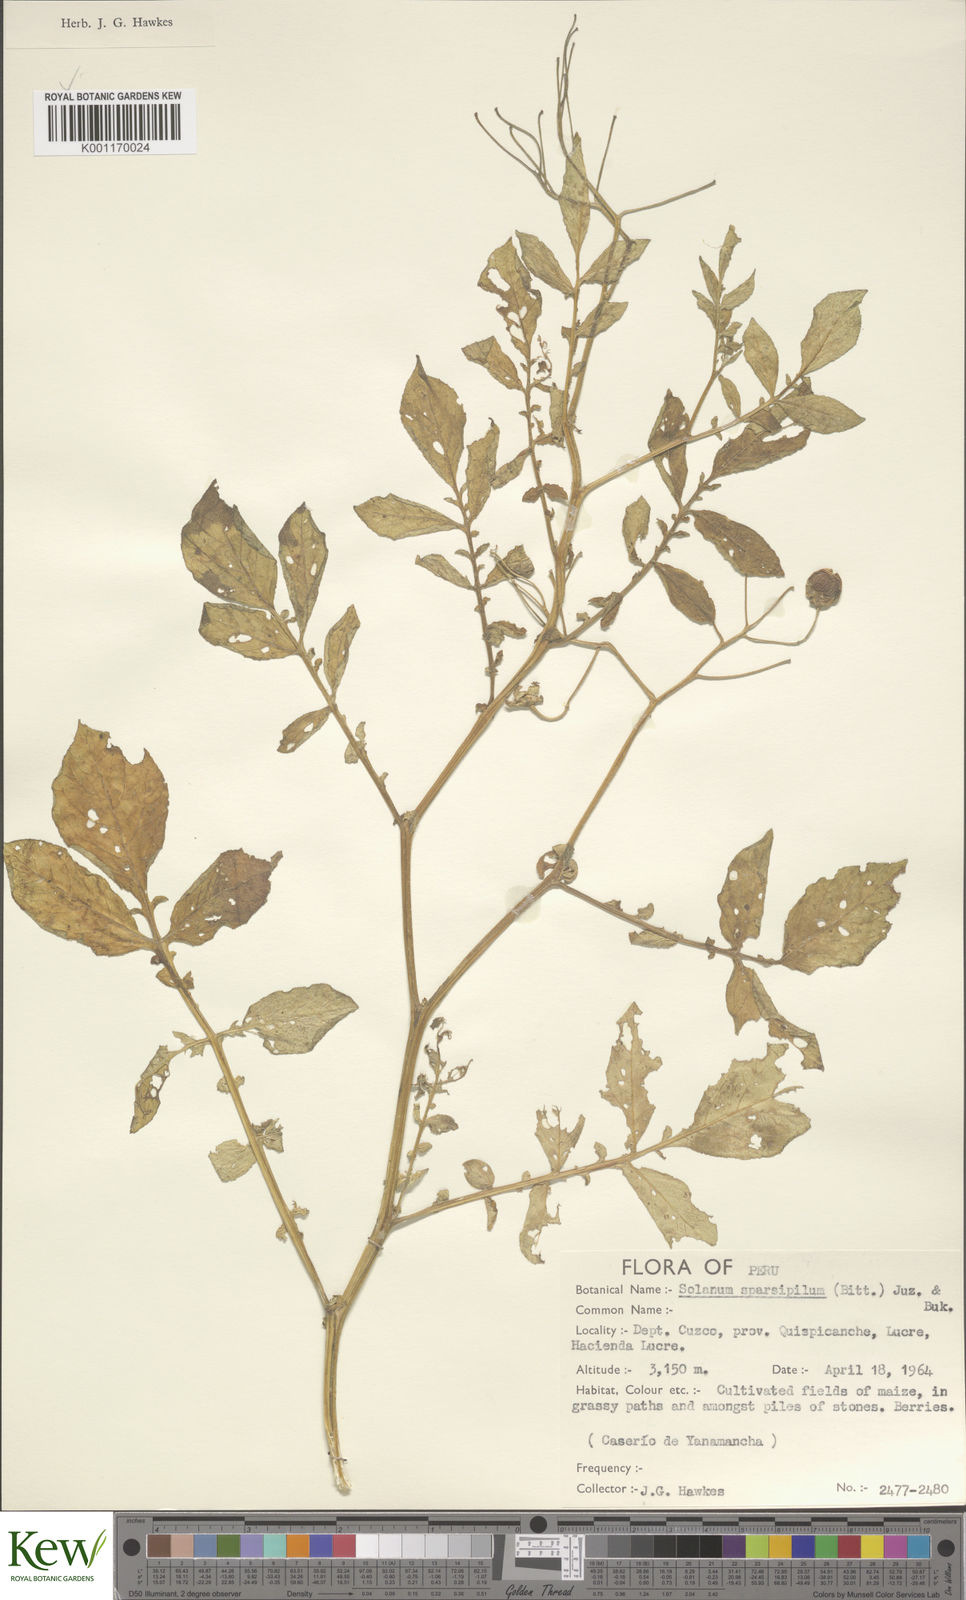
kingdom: Plantae
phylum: Tracheophyta
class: Magnoliopsida
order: Solanales
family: Solanaceae
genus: Solanum
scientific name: Solanum brevicaule
